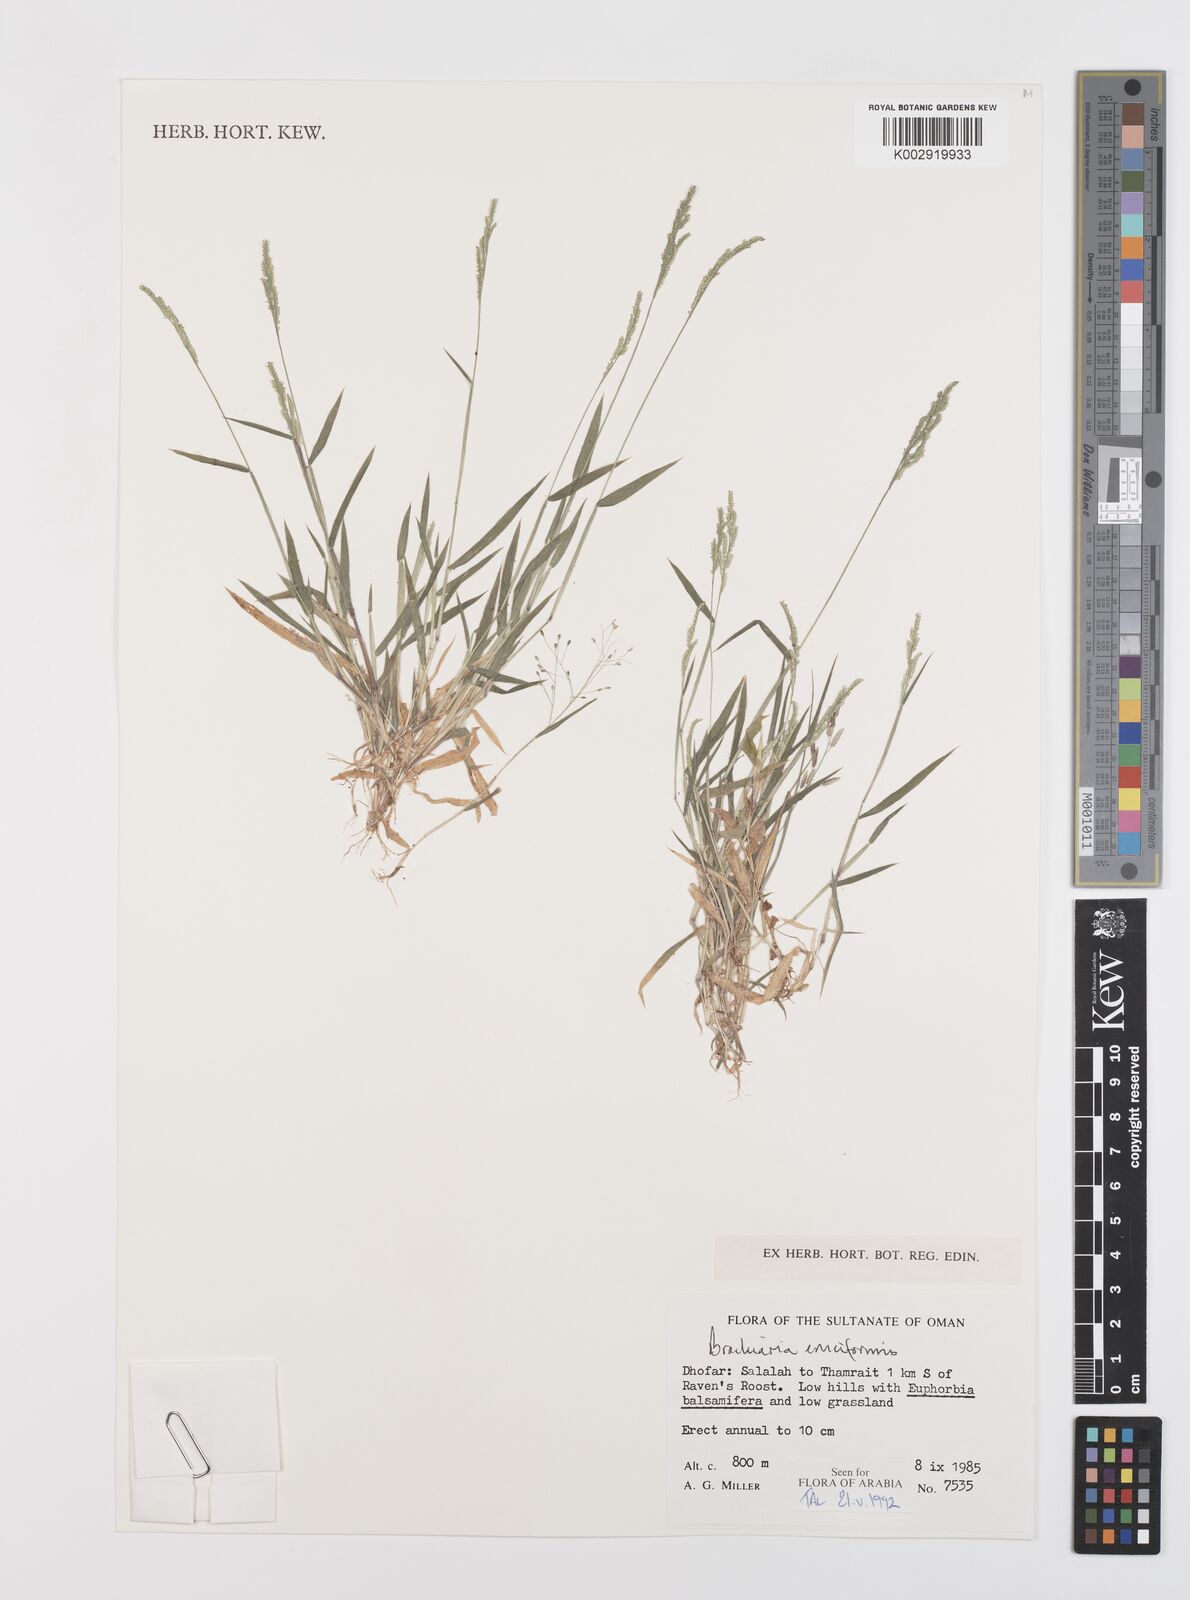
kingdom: Plantae
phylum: Tracheophyta
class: Liliopsida
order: Poales
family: Poaceae
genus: Moorochloa
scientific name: Moorochloa eruciformis
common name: Sweet signalgrass
